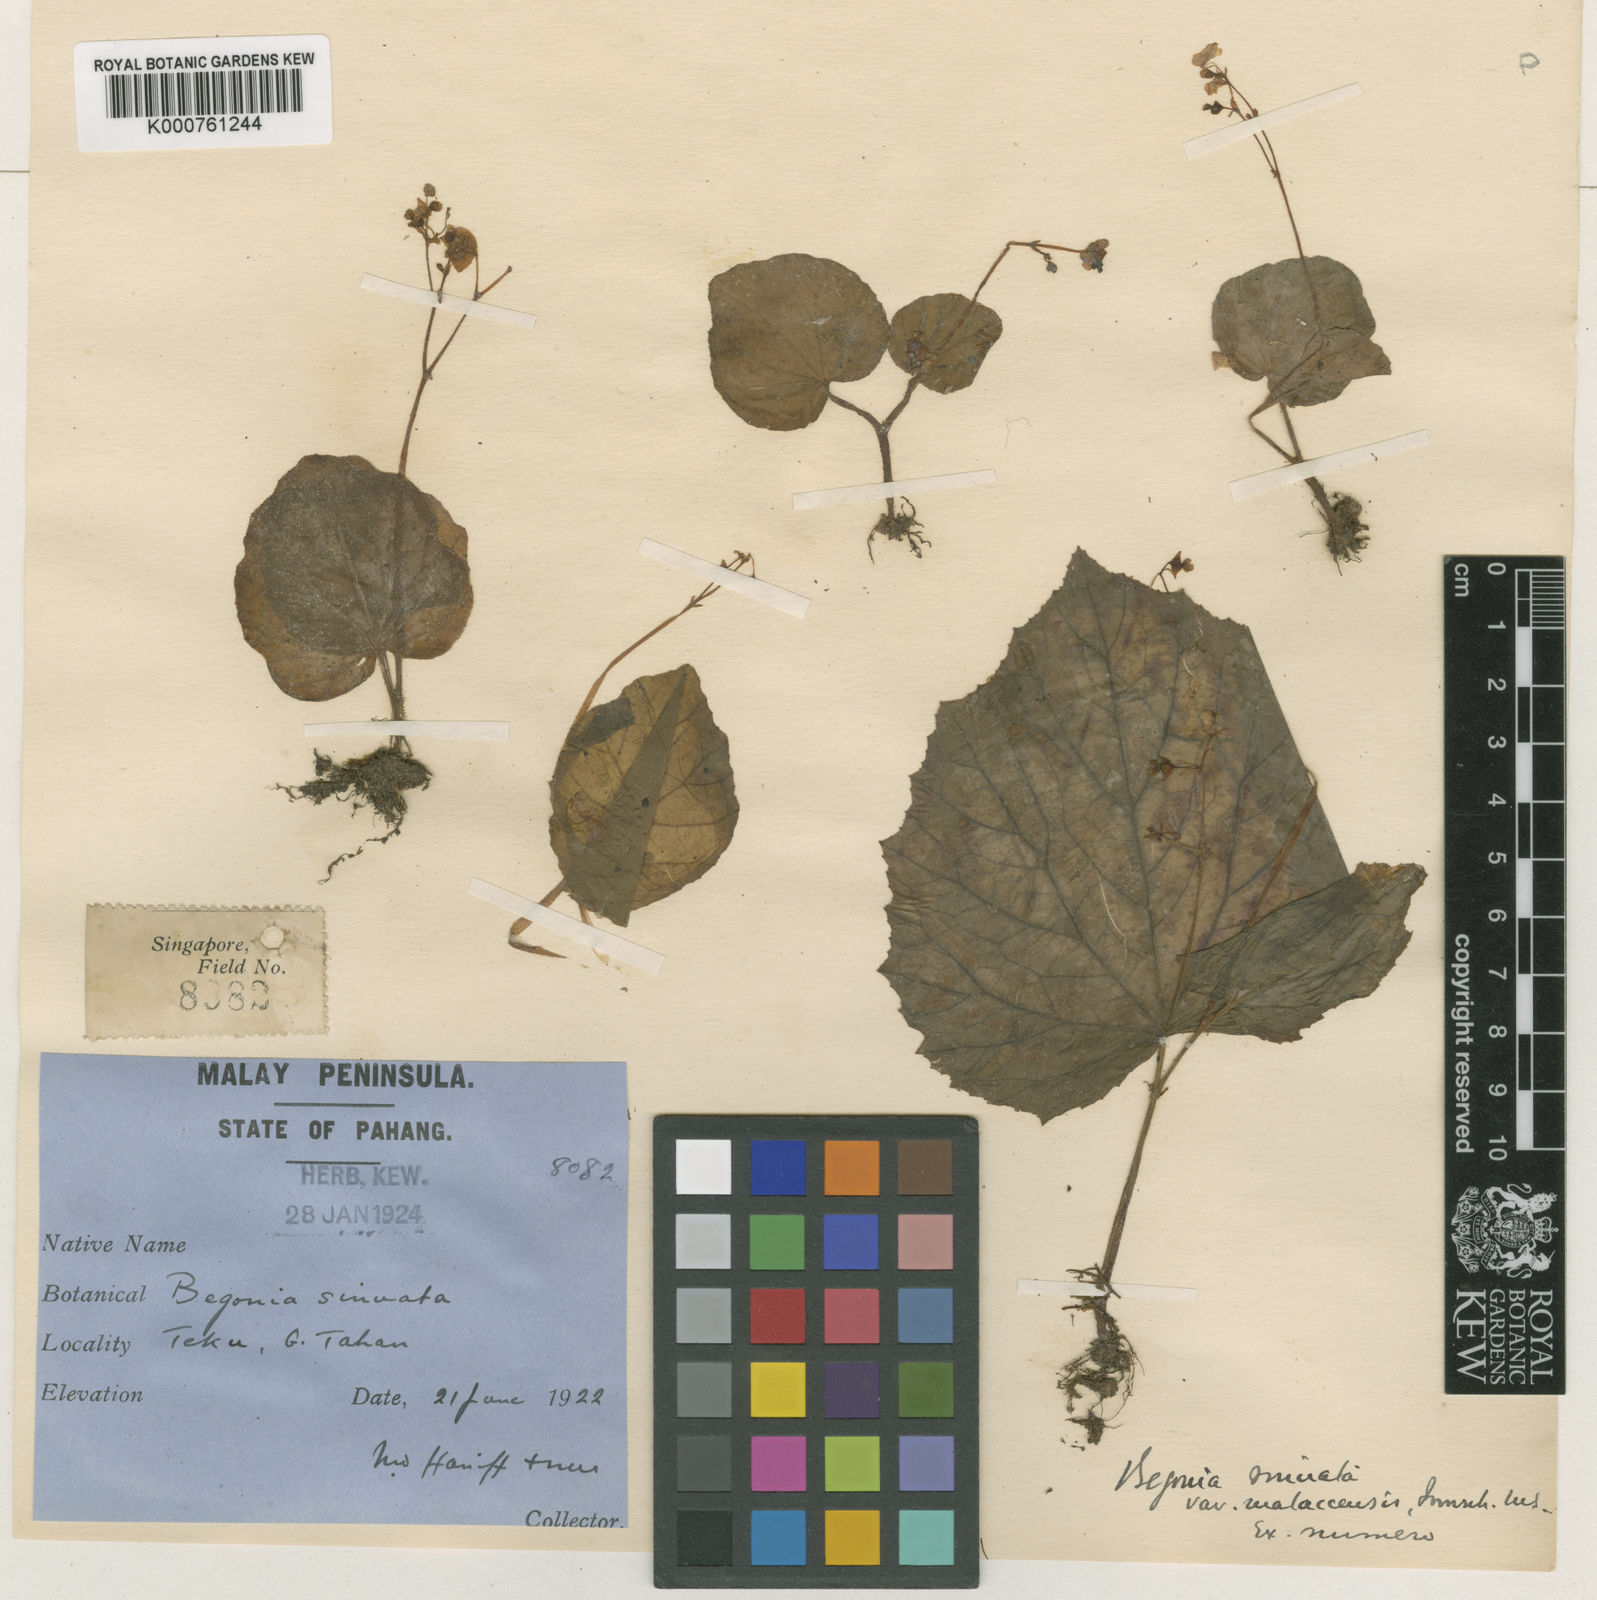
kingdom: Plantae
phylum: Tracheophyta
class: Magnoliopsida
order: Cucurbitales
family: Begoniaceae
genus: Begonia
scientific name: Begonia
